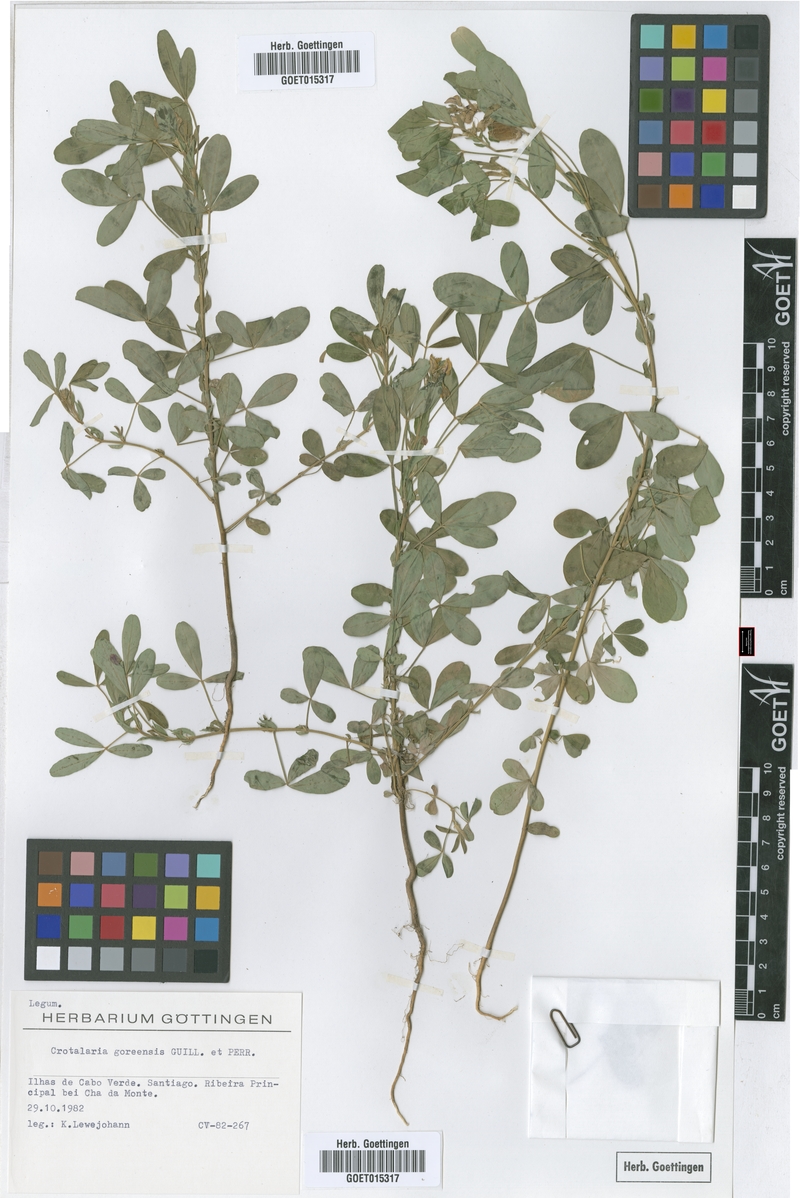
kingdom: Plantae
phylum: Tracheophyta
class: Magnoliopsida
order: Fabales
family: Fabaceae
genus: Crotalaria
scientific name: Crotalaria goreensis
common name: Gambia-pea
